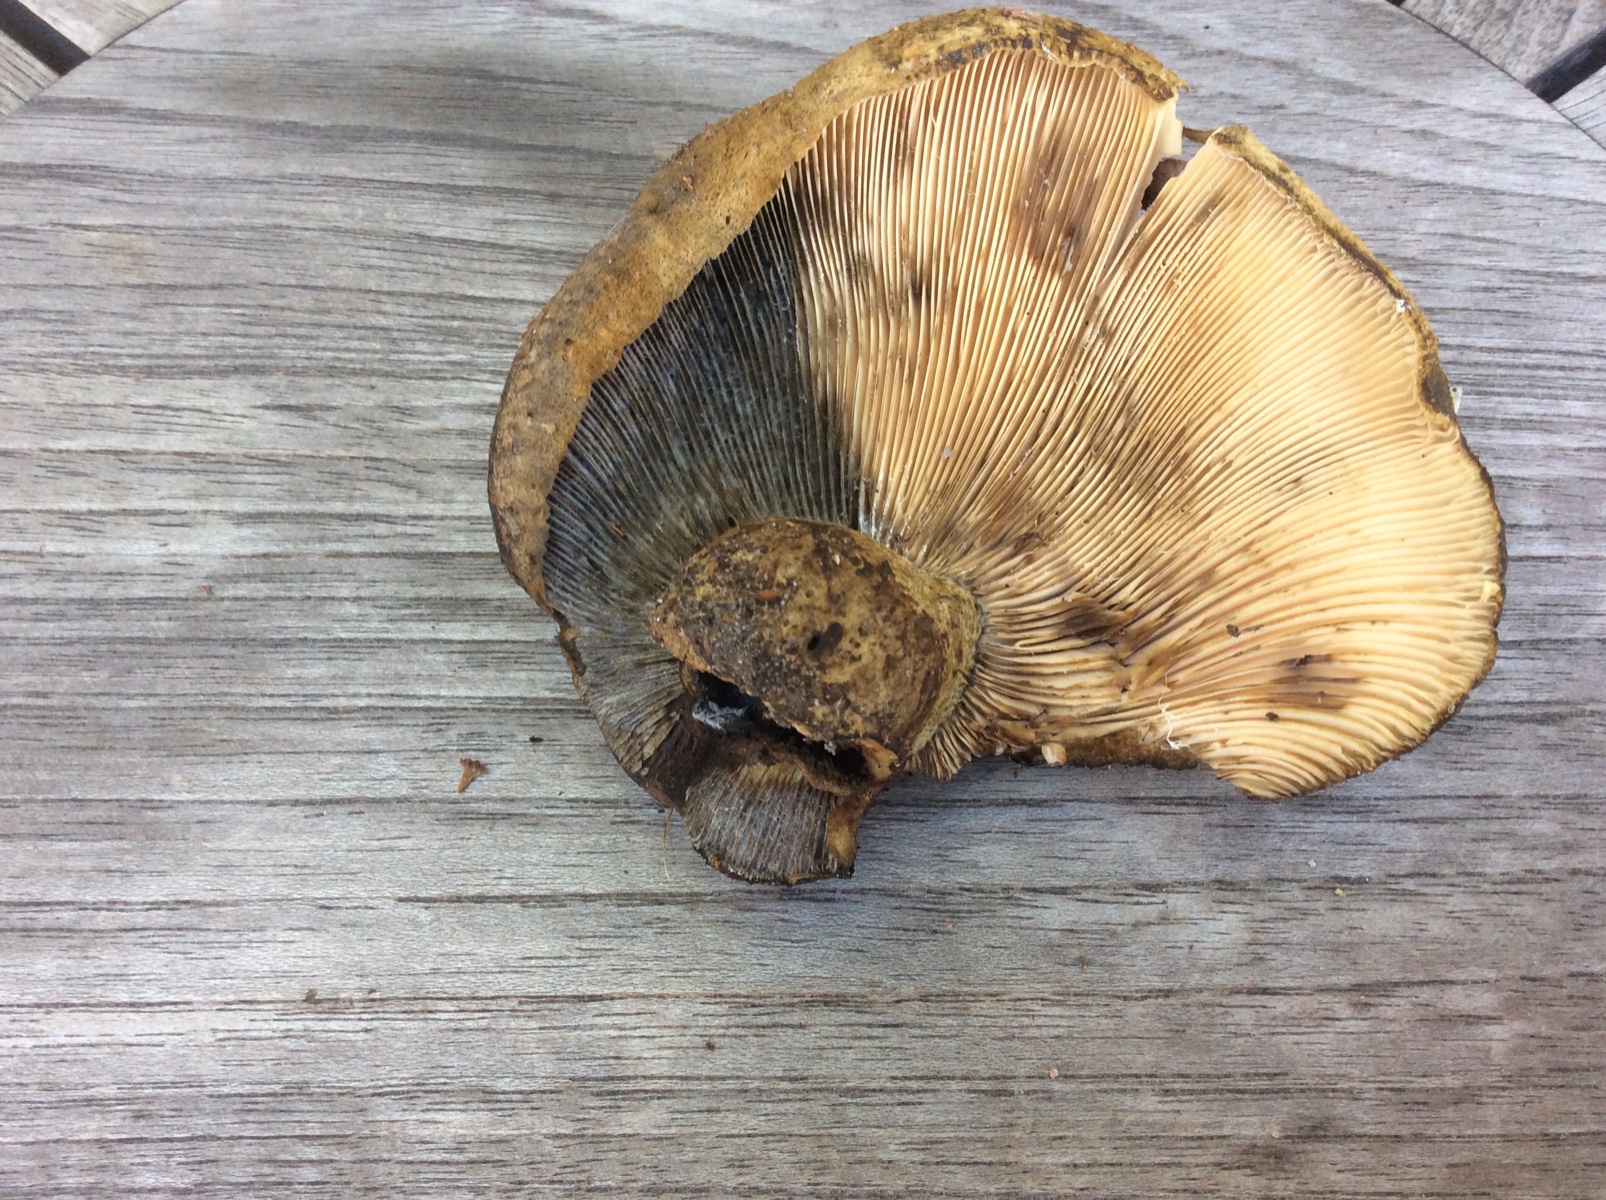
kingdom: Fungi
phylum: Basidiomycota
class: Agaricomycetes
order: Russulales
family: Russulaceae
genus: Lactarius
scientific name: Lactarius necator
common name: manddraber-mælkehat
